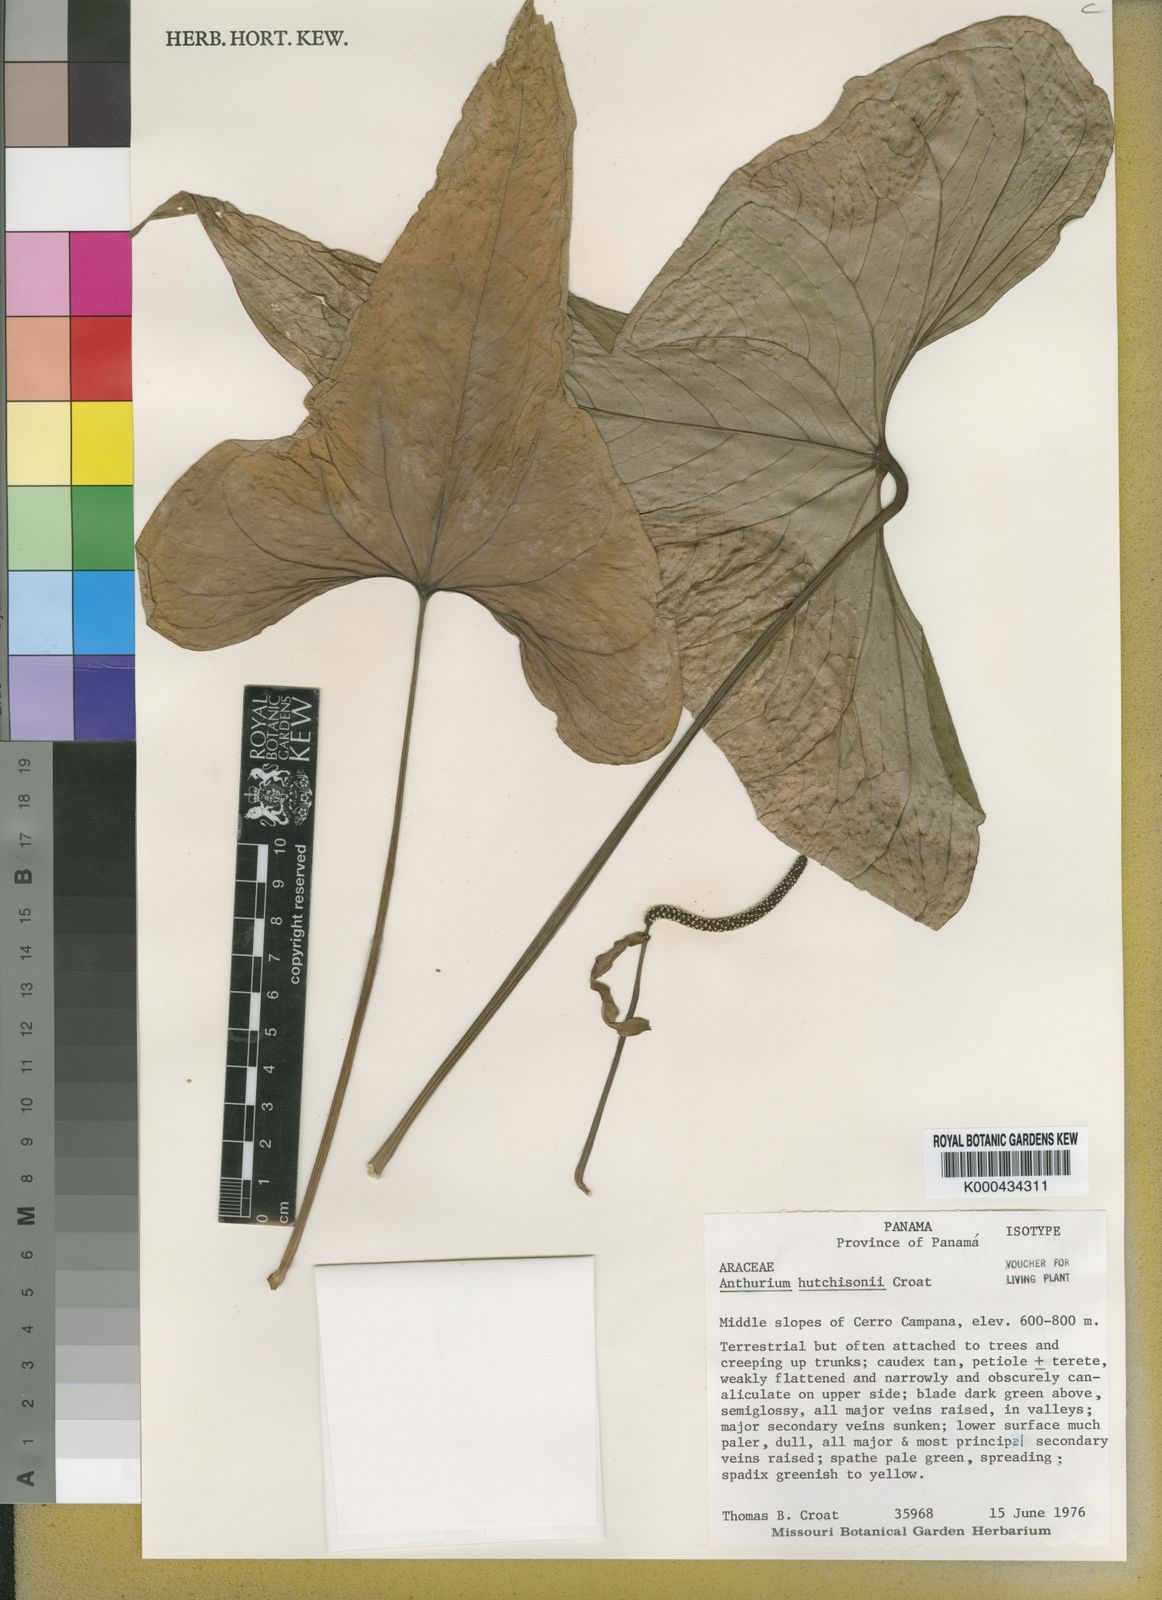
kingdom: Plantae
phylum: Tracheophyta
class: Liliopsida
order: Alismatales
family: Araceae
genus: Anthurium
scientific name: Anthurium
